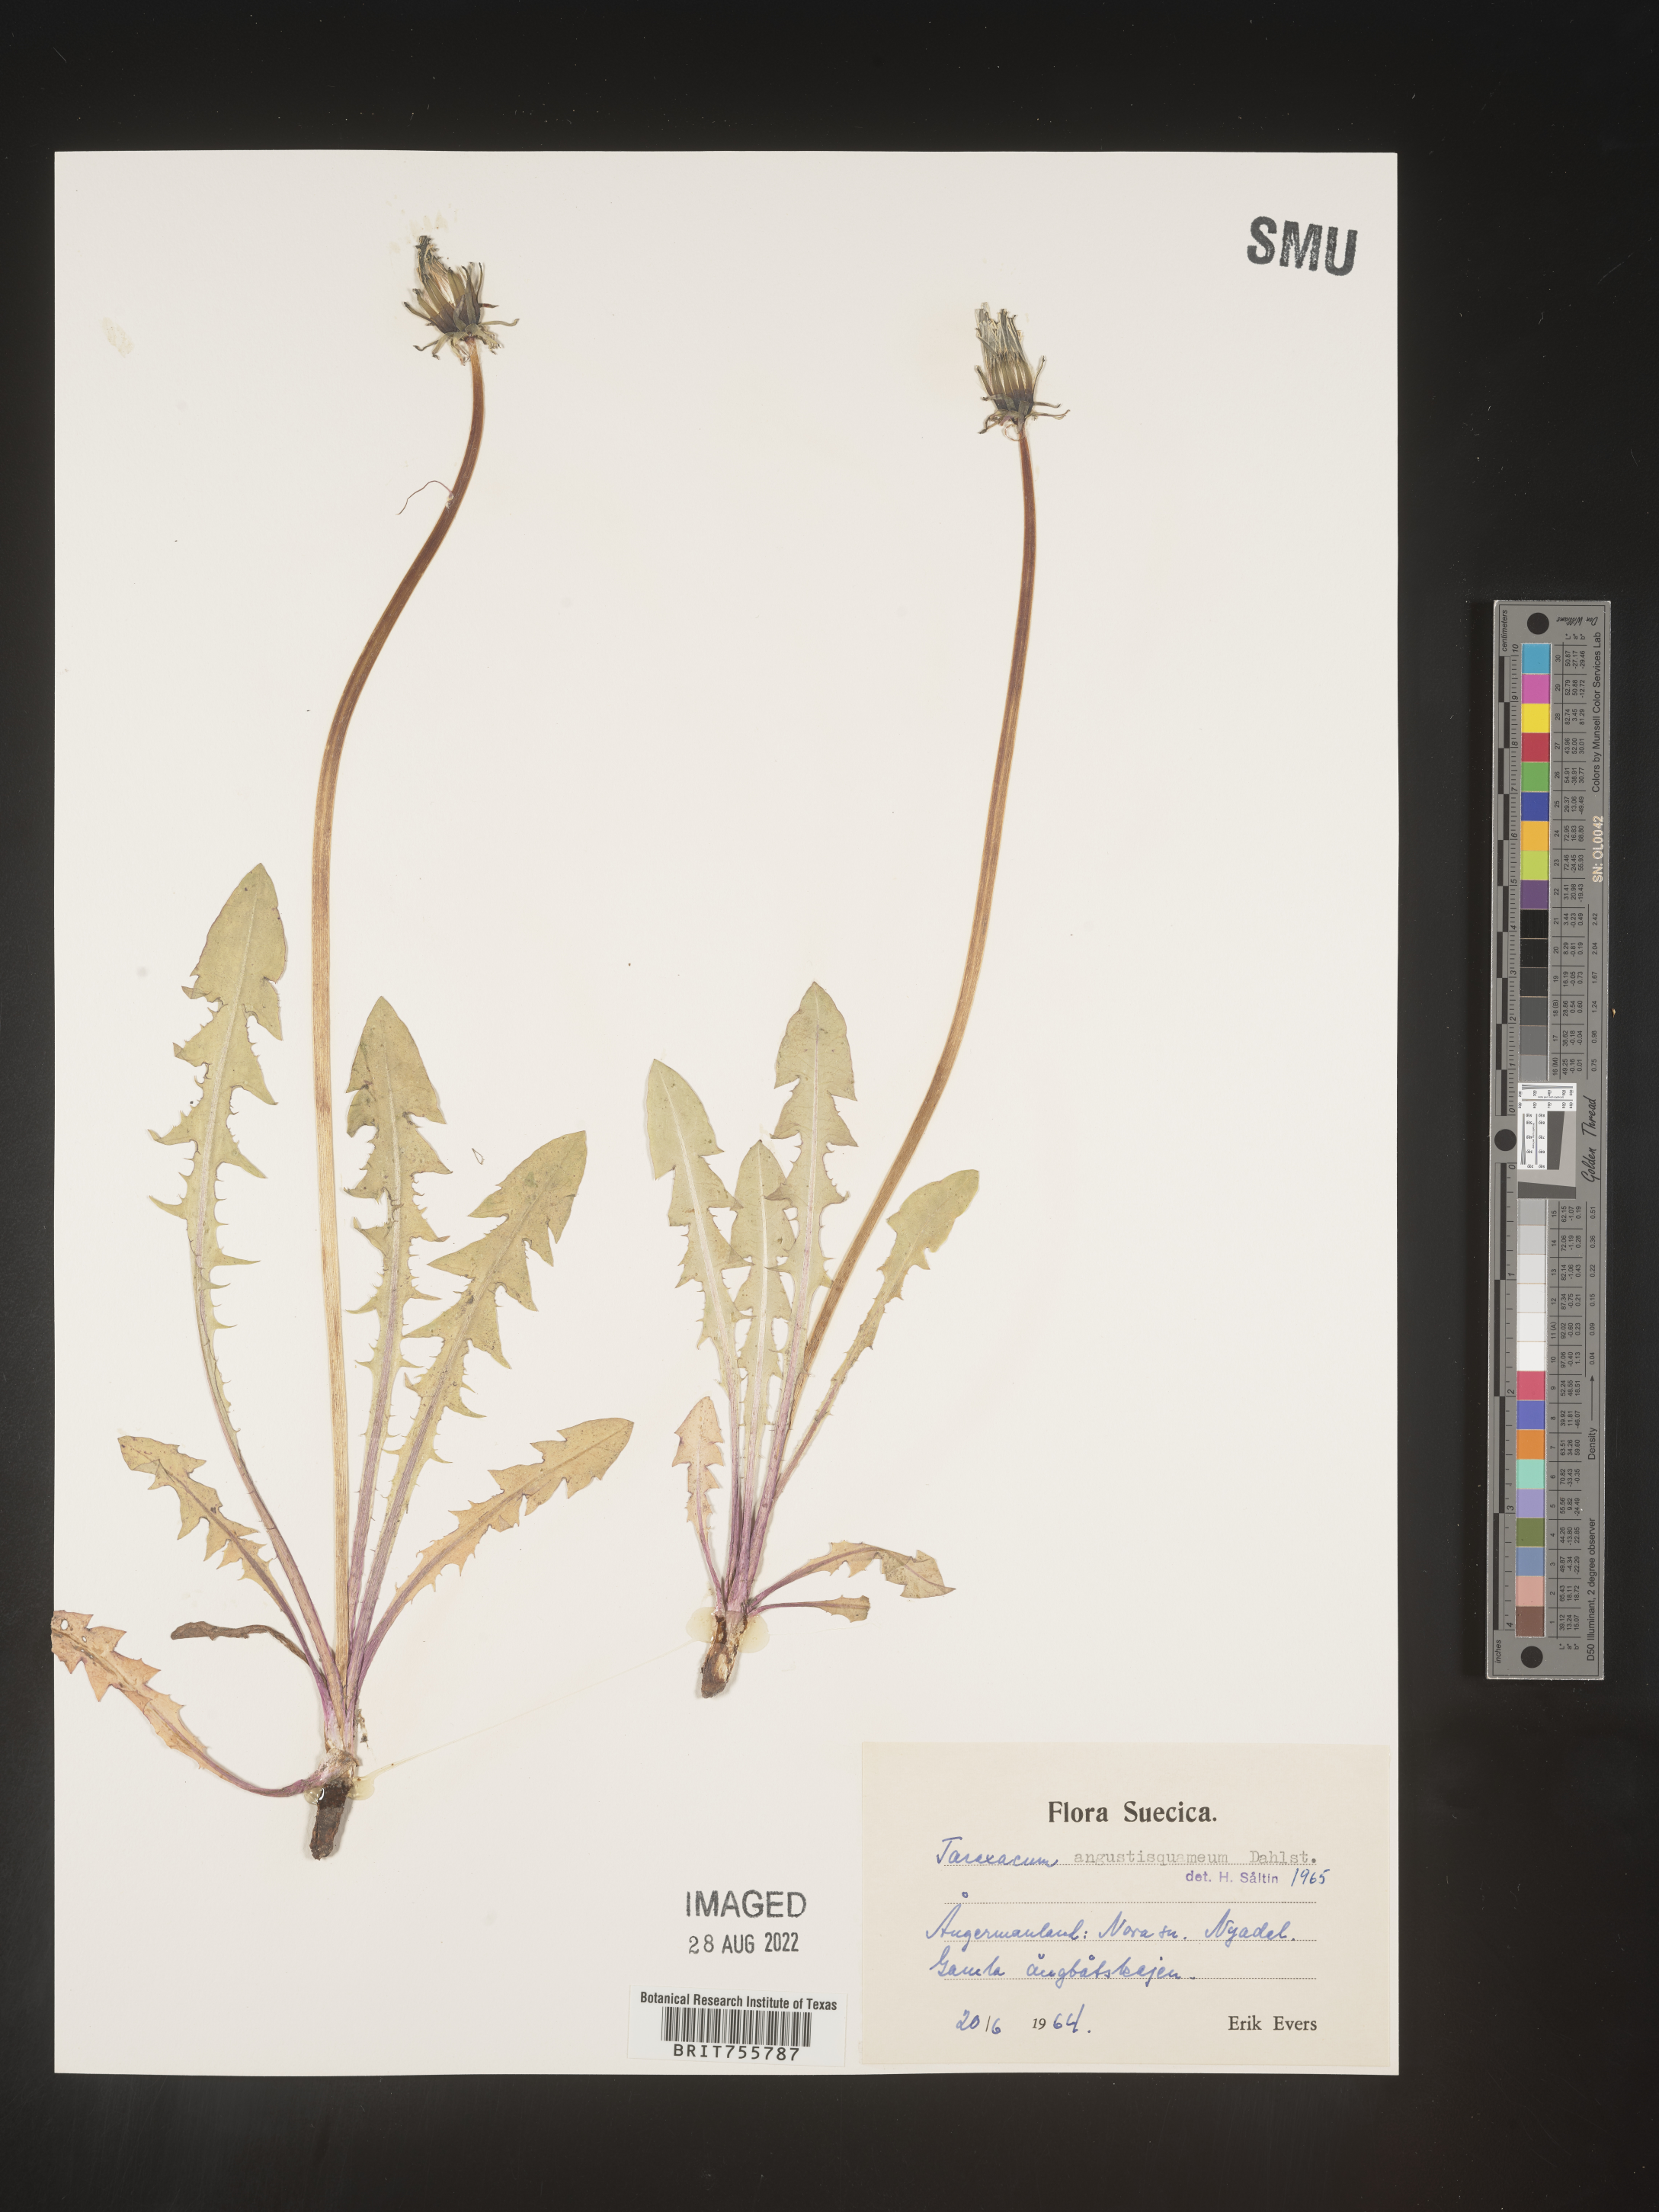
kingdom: Plantae
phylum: Tracheophyta
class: Magnoliopsida
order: Asterales
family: Asteraceae
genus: Taraxacum
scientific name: Taraxacum
